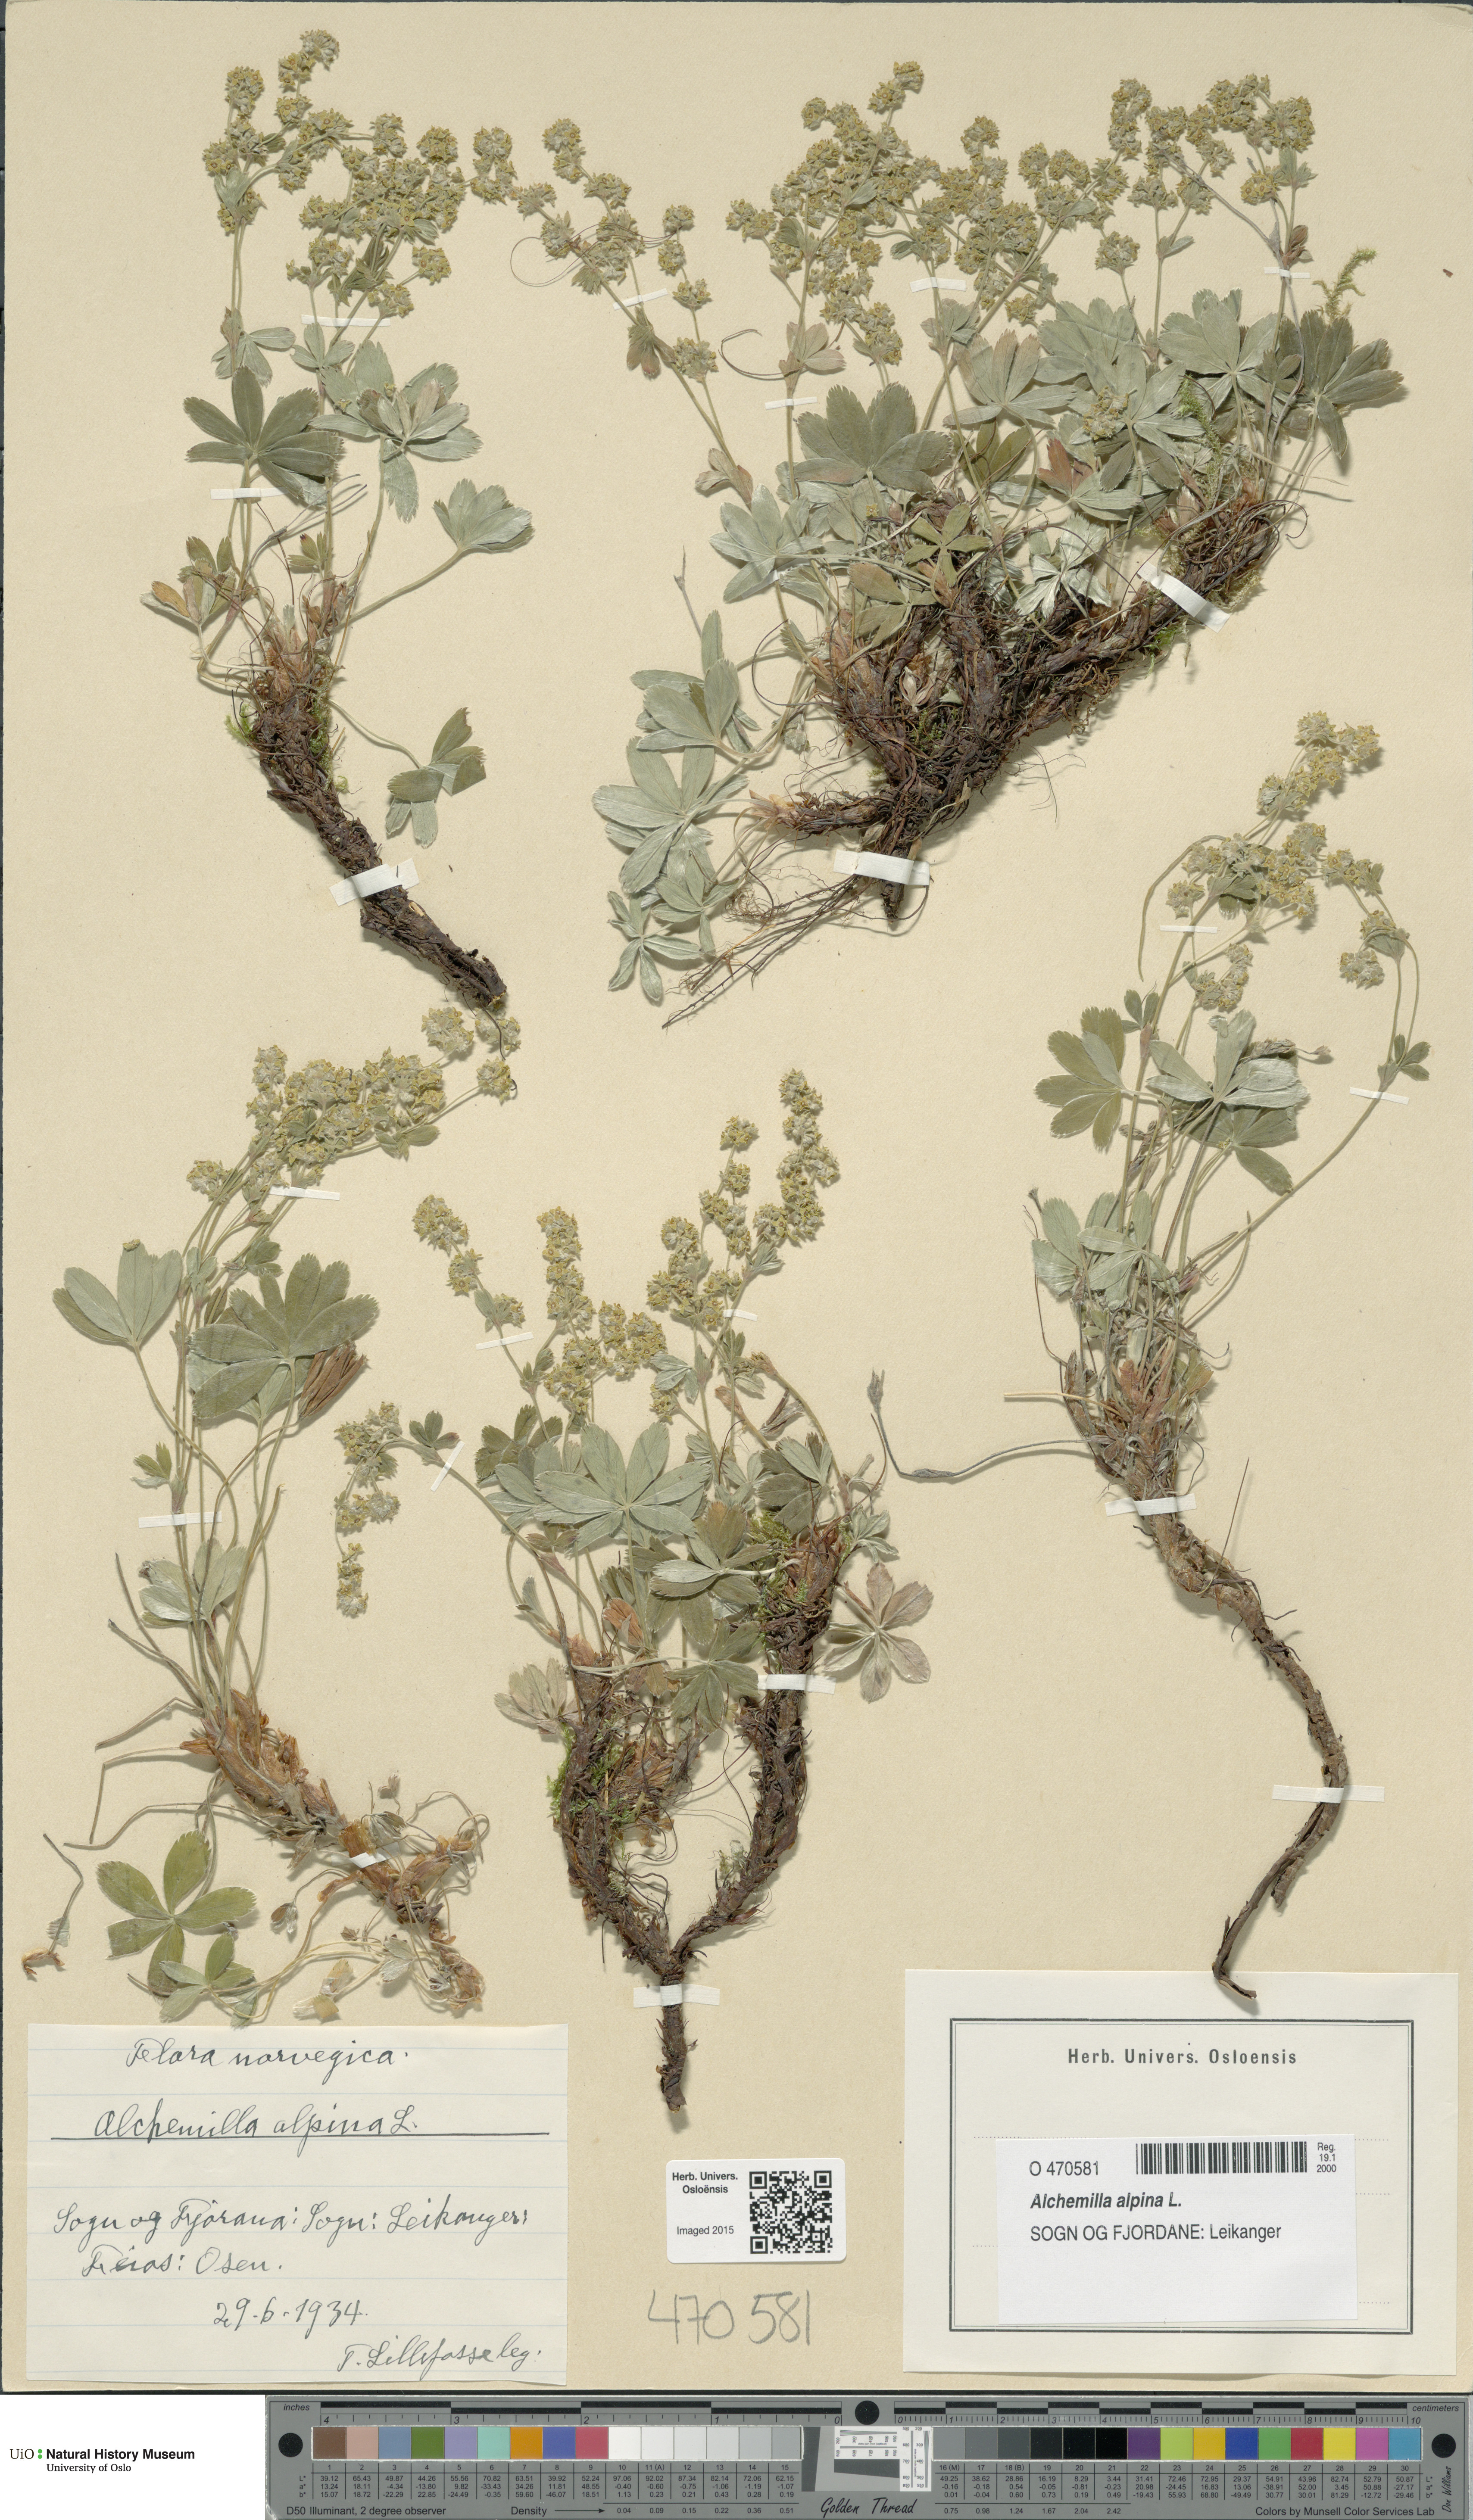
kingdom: Plantae
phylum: Tracheophyta
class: Magnoliopsida
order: Rosales
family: Rosaceae
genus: Alchemilla
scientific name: Alchemilla alpina
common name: Alpine lady's-mantle
